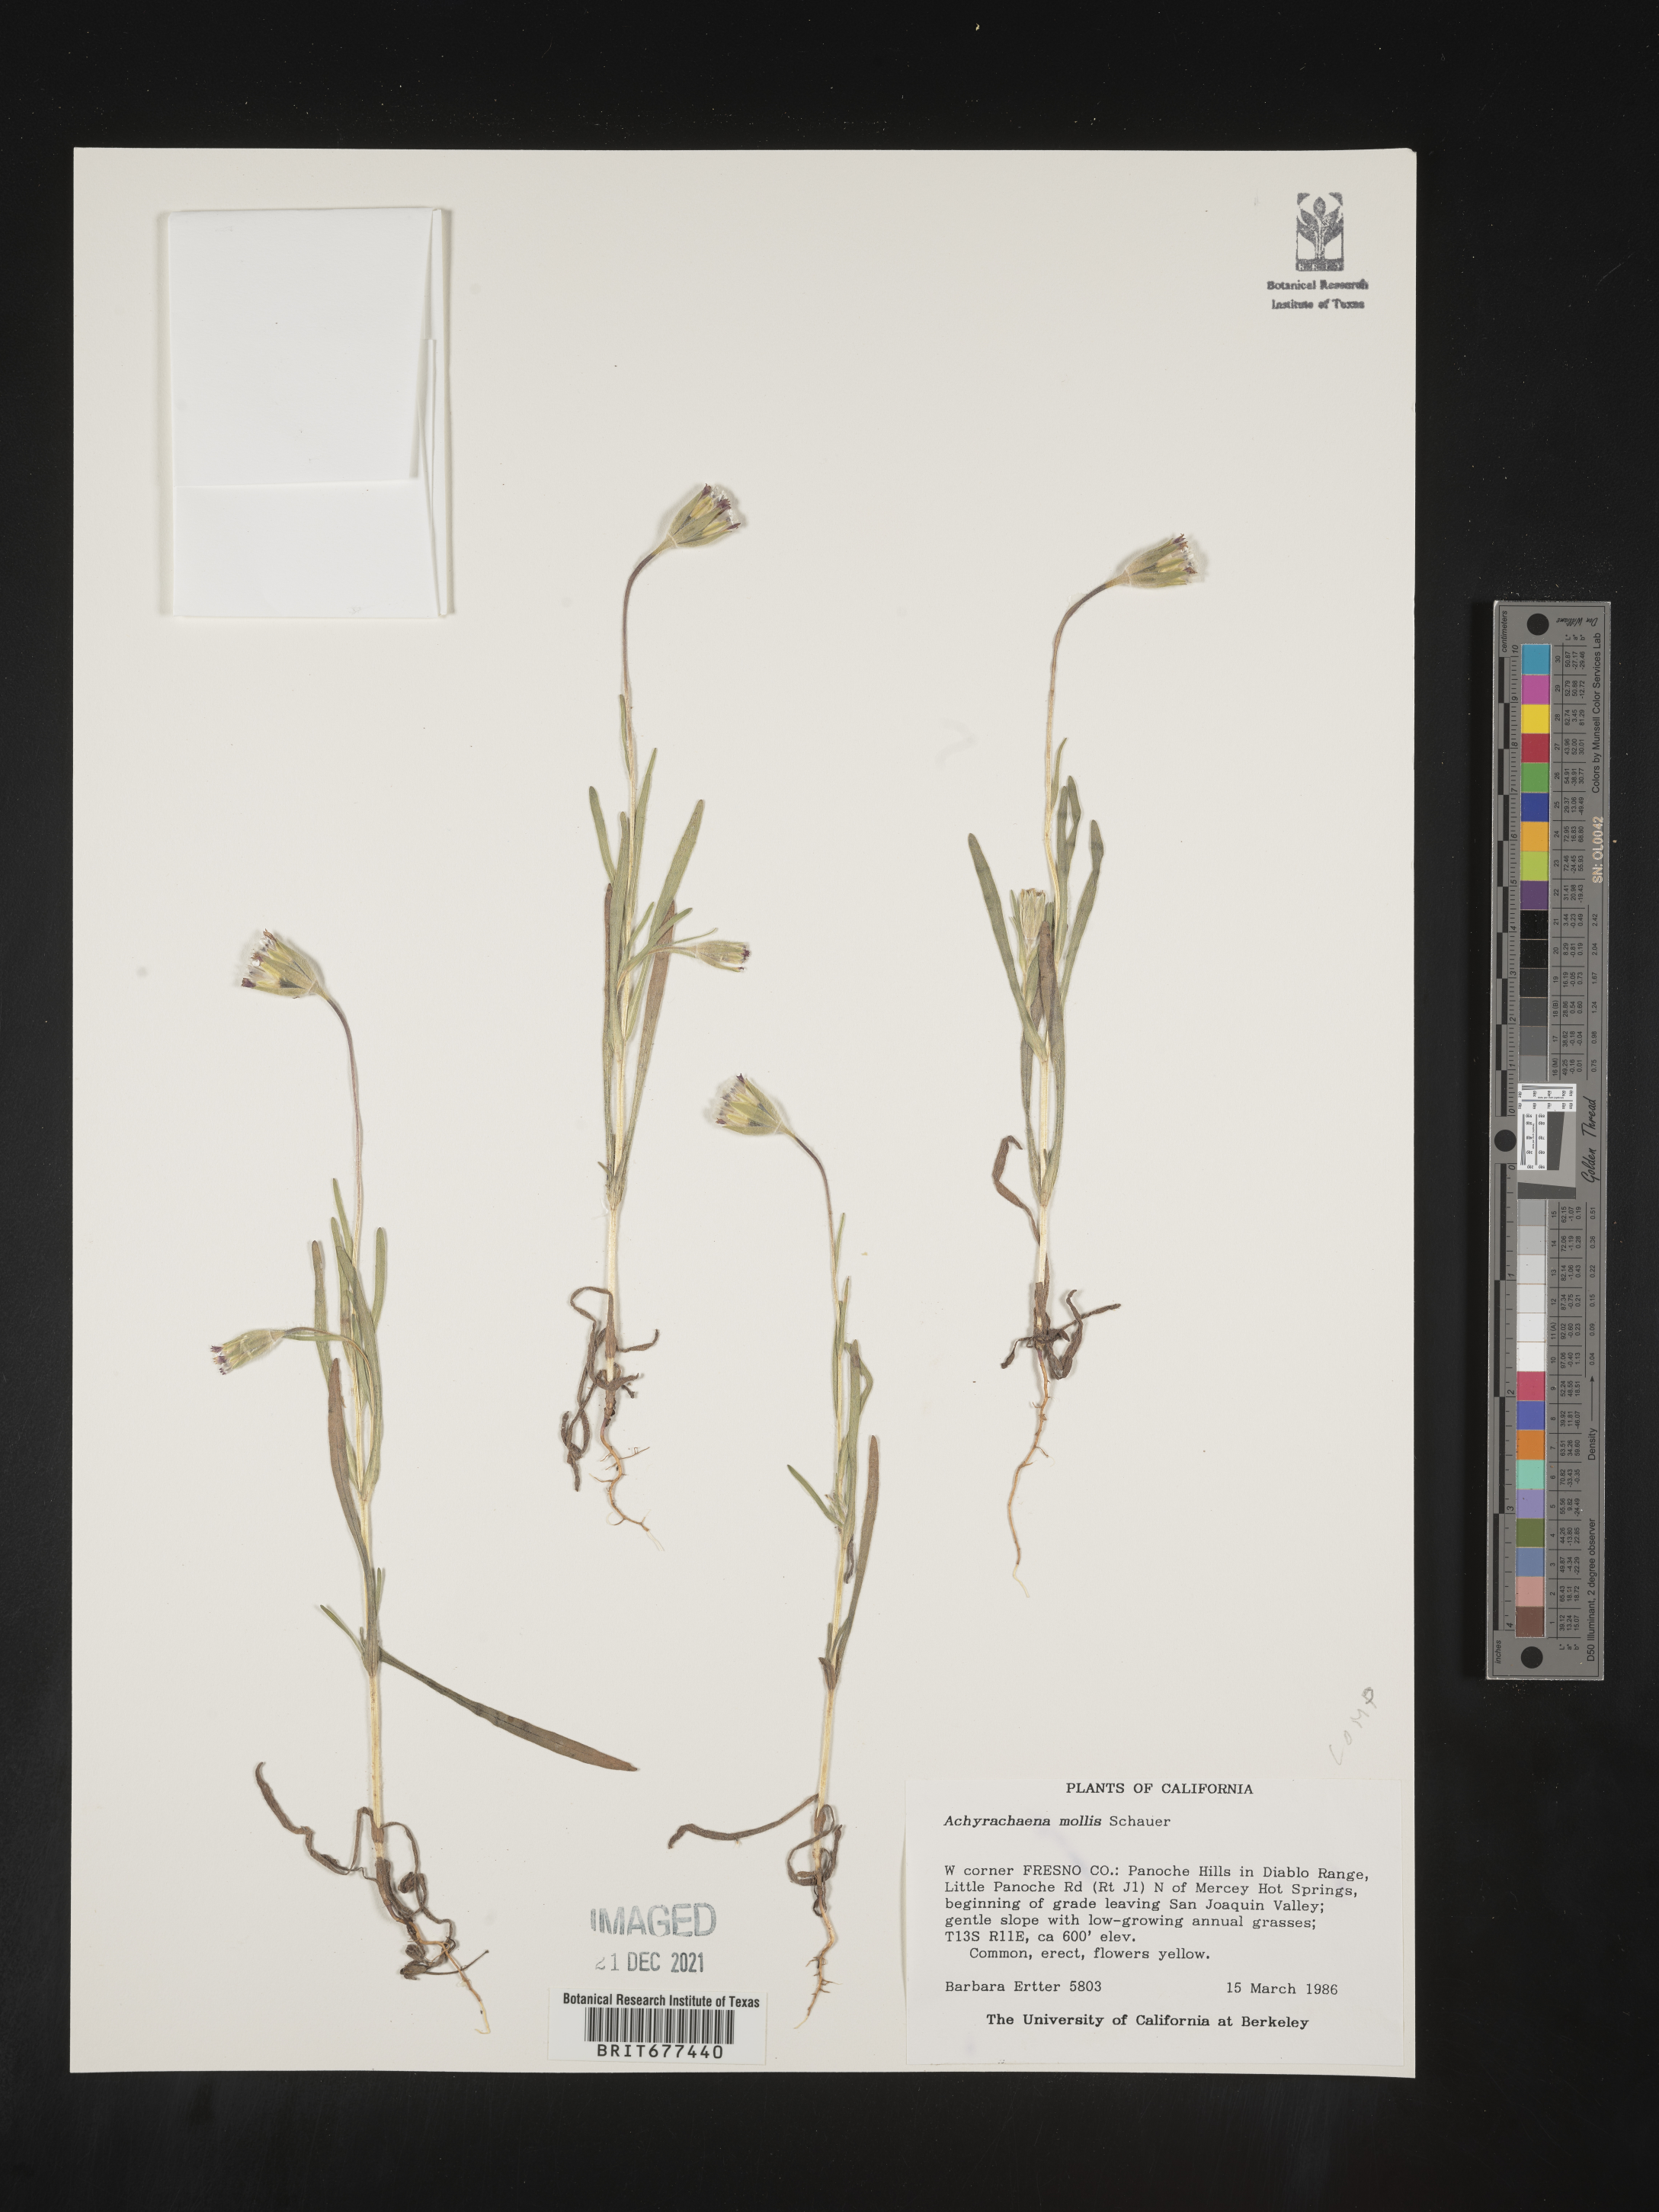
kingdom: Plantae
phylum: Tracheophyta
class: Magnoliopsida
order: Asterales
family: Asteraceae
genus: Achyrachaena
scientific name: Achyrachaena mollis
